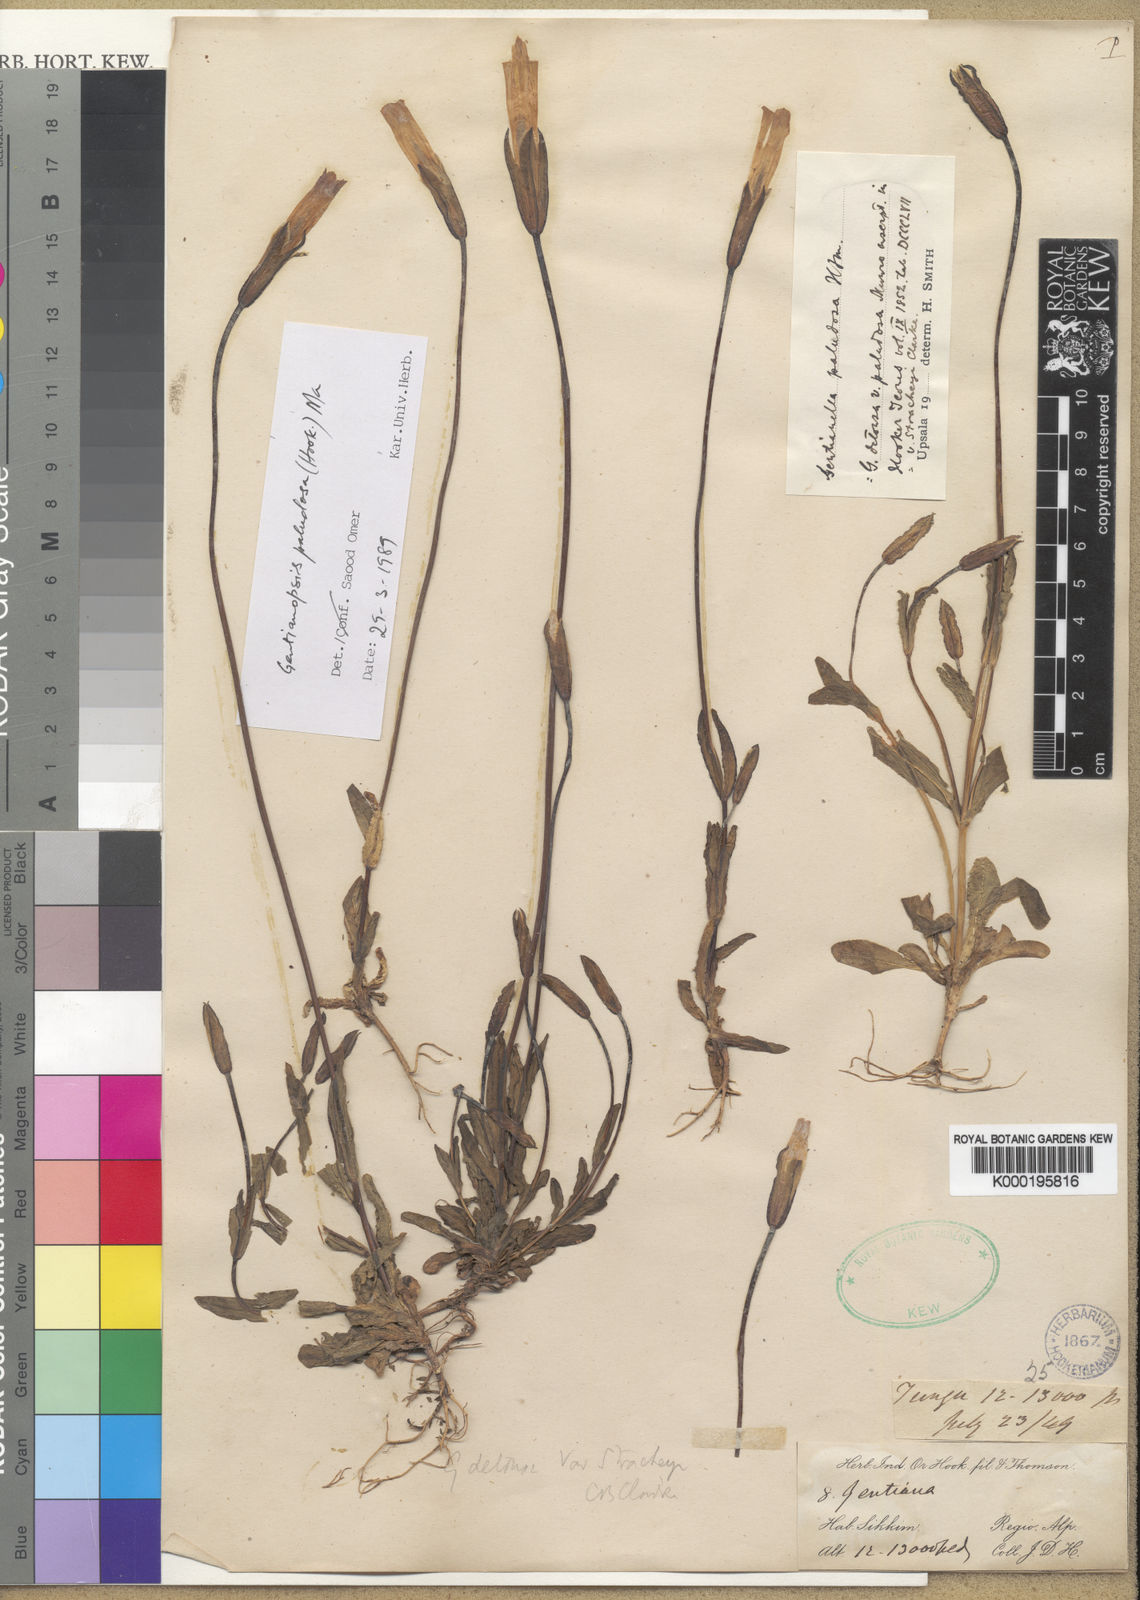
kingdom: Plantae
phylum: Tracheophyta
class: Magnoliopsida
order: Gentianales
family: Gentianaceae
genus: Gentianopsis
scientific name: Gentianopsis paludosa
